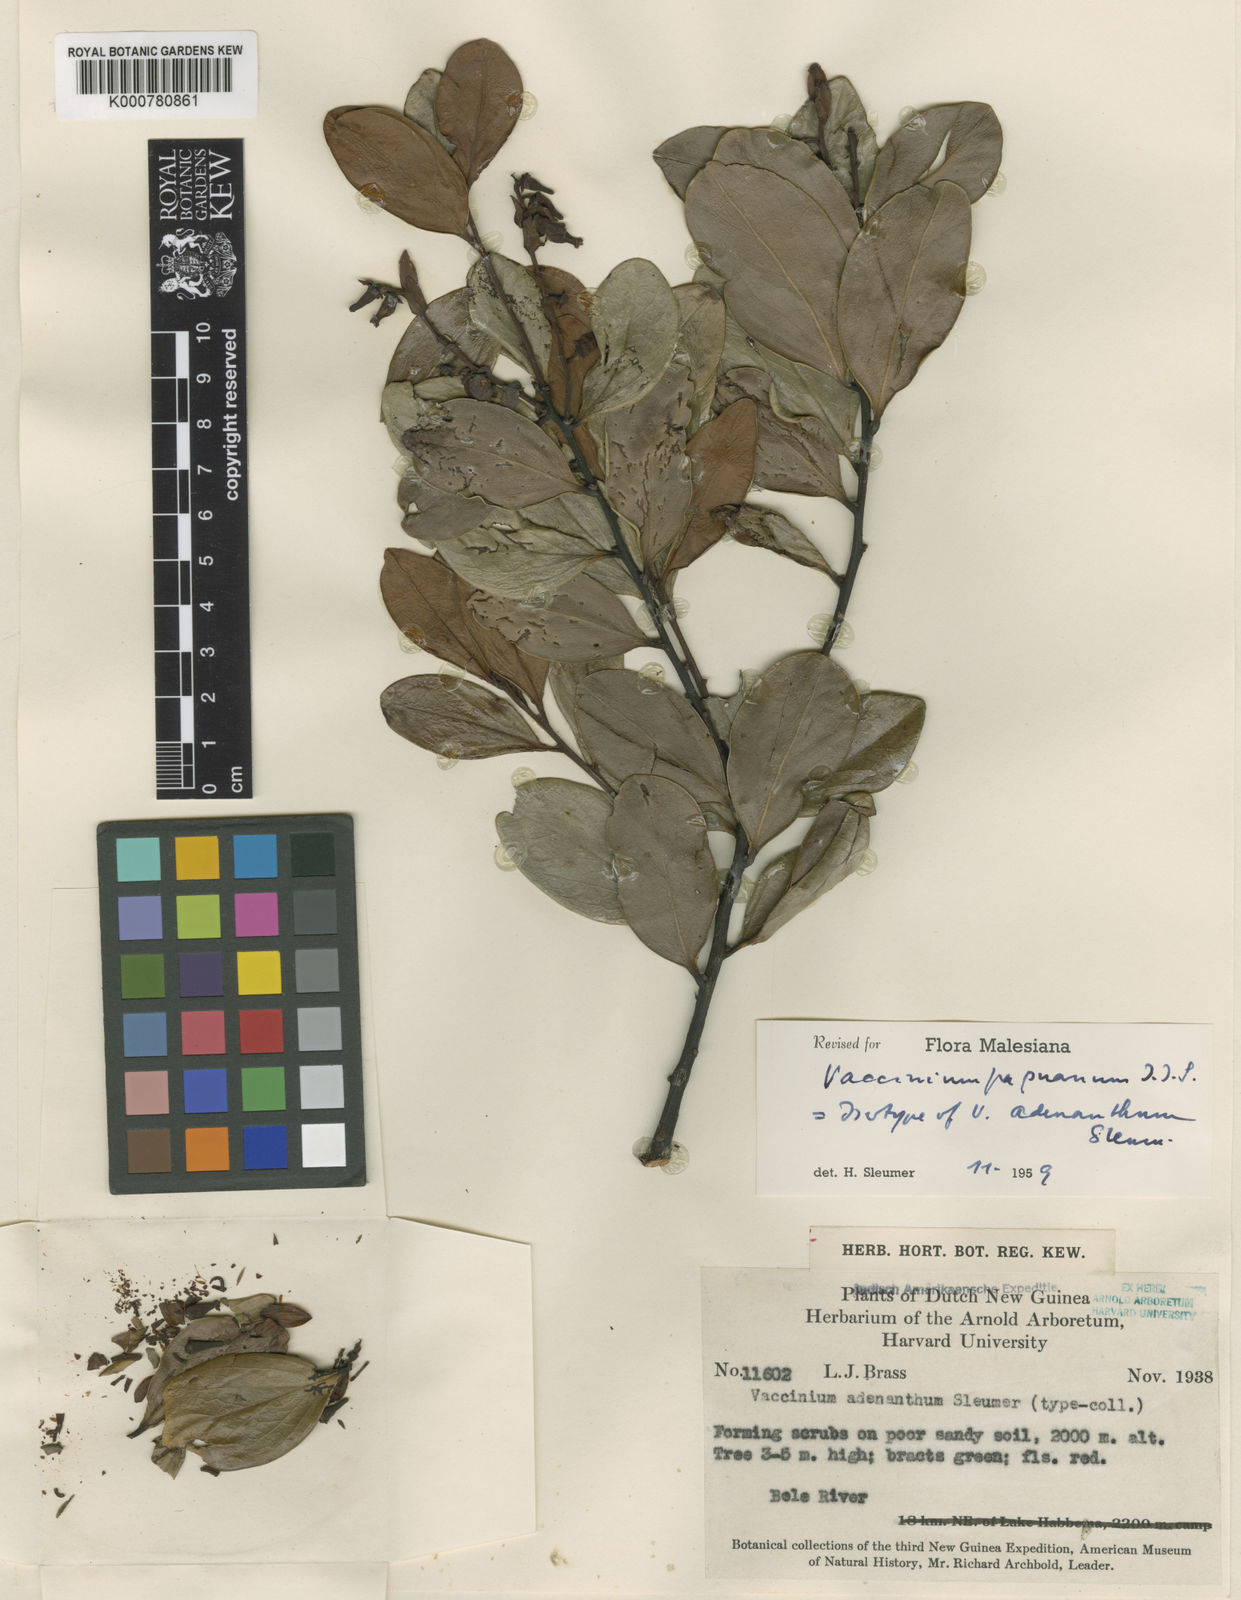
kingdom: Plantae
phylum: Tracheophyta
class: Magnoliopsida
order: Ericales
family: Ericaceae
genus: Vaccinium
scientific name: Vaccinium acrobracteatum
